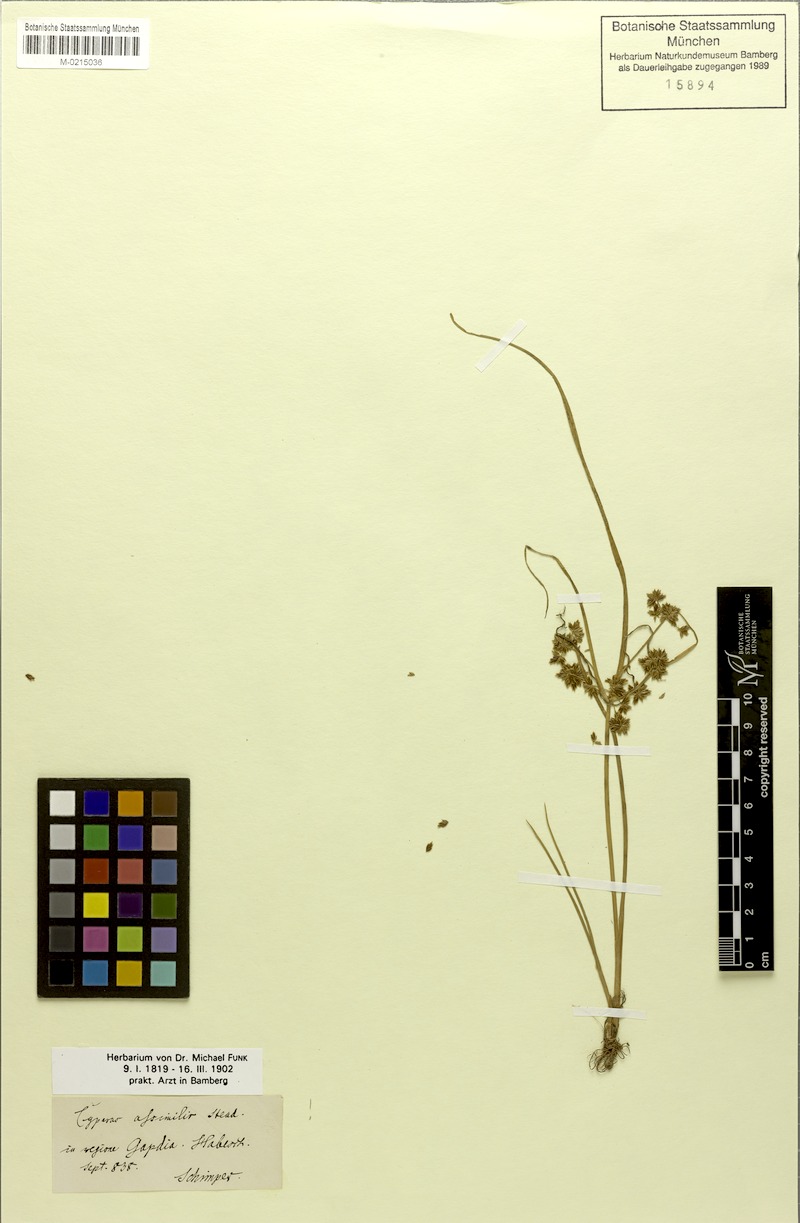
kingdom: Plantae
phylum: Tracheophyta
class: Liliopsida
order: Poales
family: Cyperaceae
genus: Cyperus
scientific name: Cyperus assimilis
